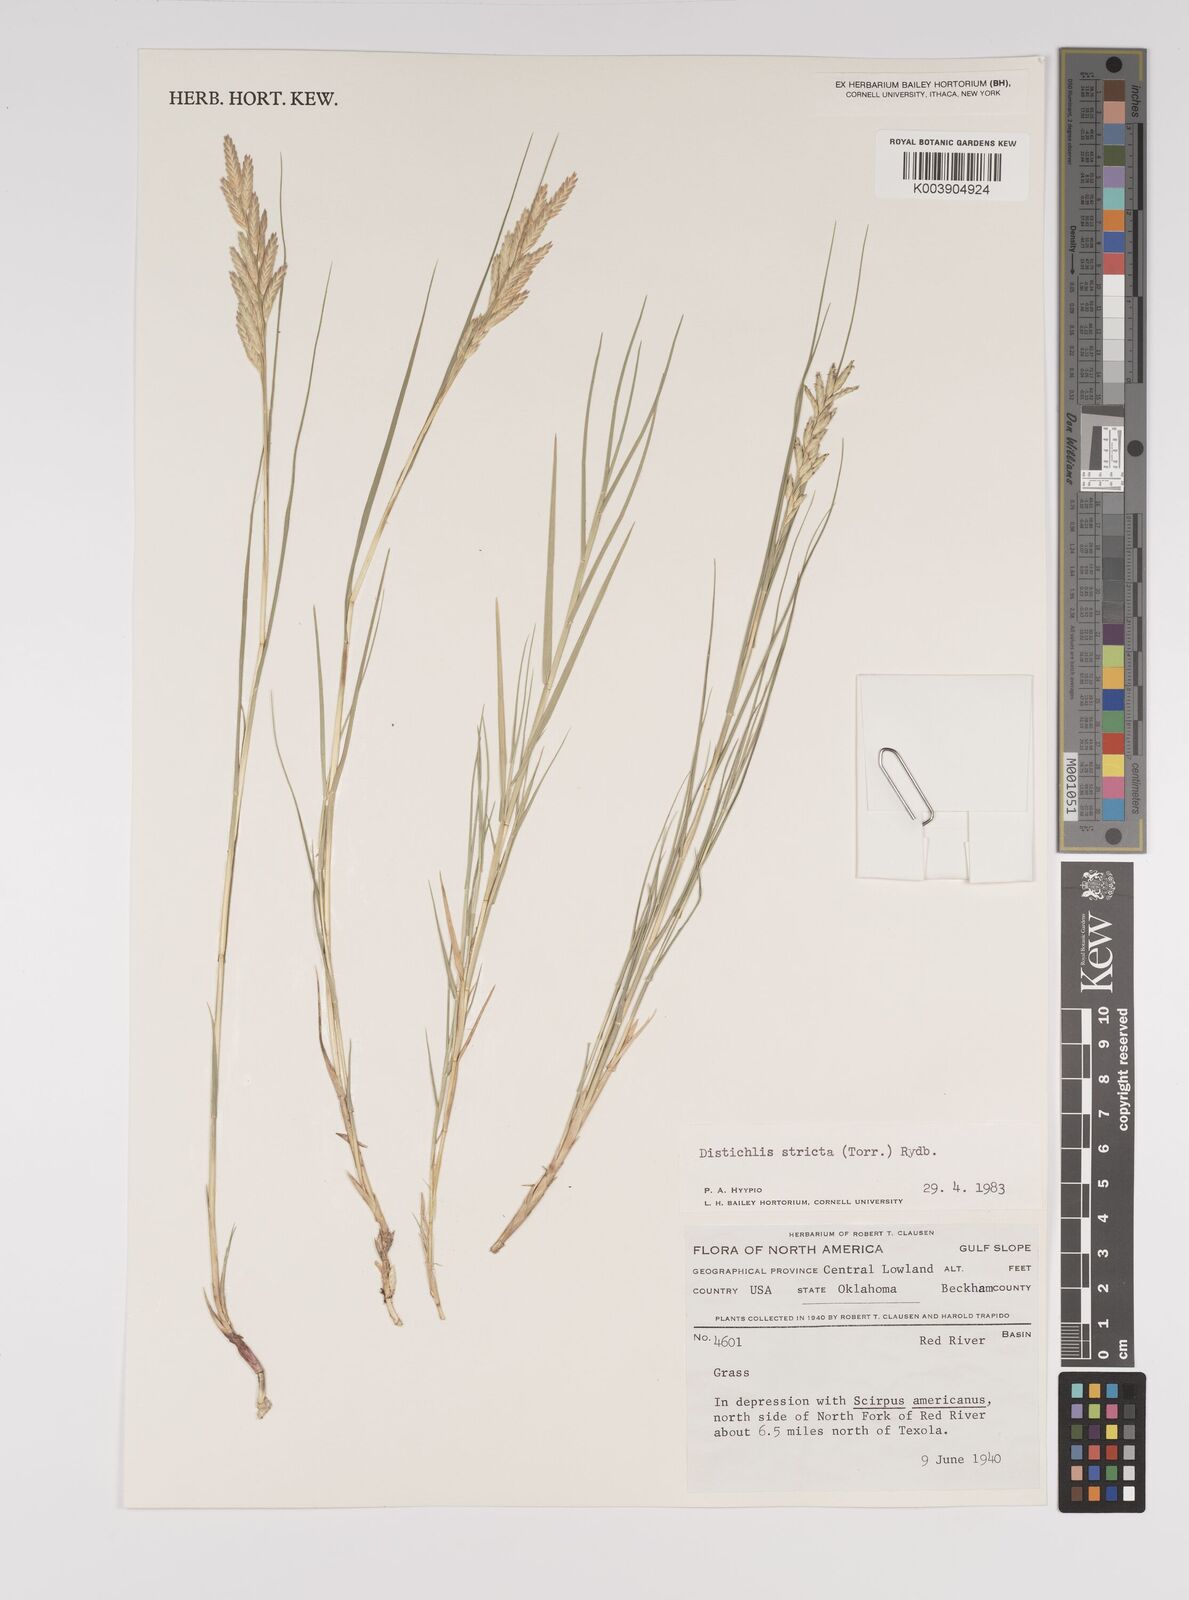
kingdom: Plantae
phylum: Tracheophyta
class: Liliopsida
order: Poales
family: Poaceae
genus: Distichlis
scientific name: Distichlis spicata
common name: Saltgrass
